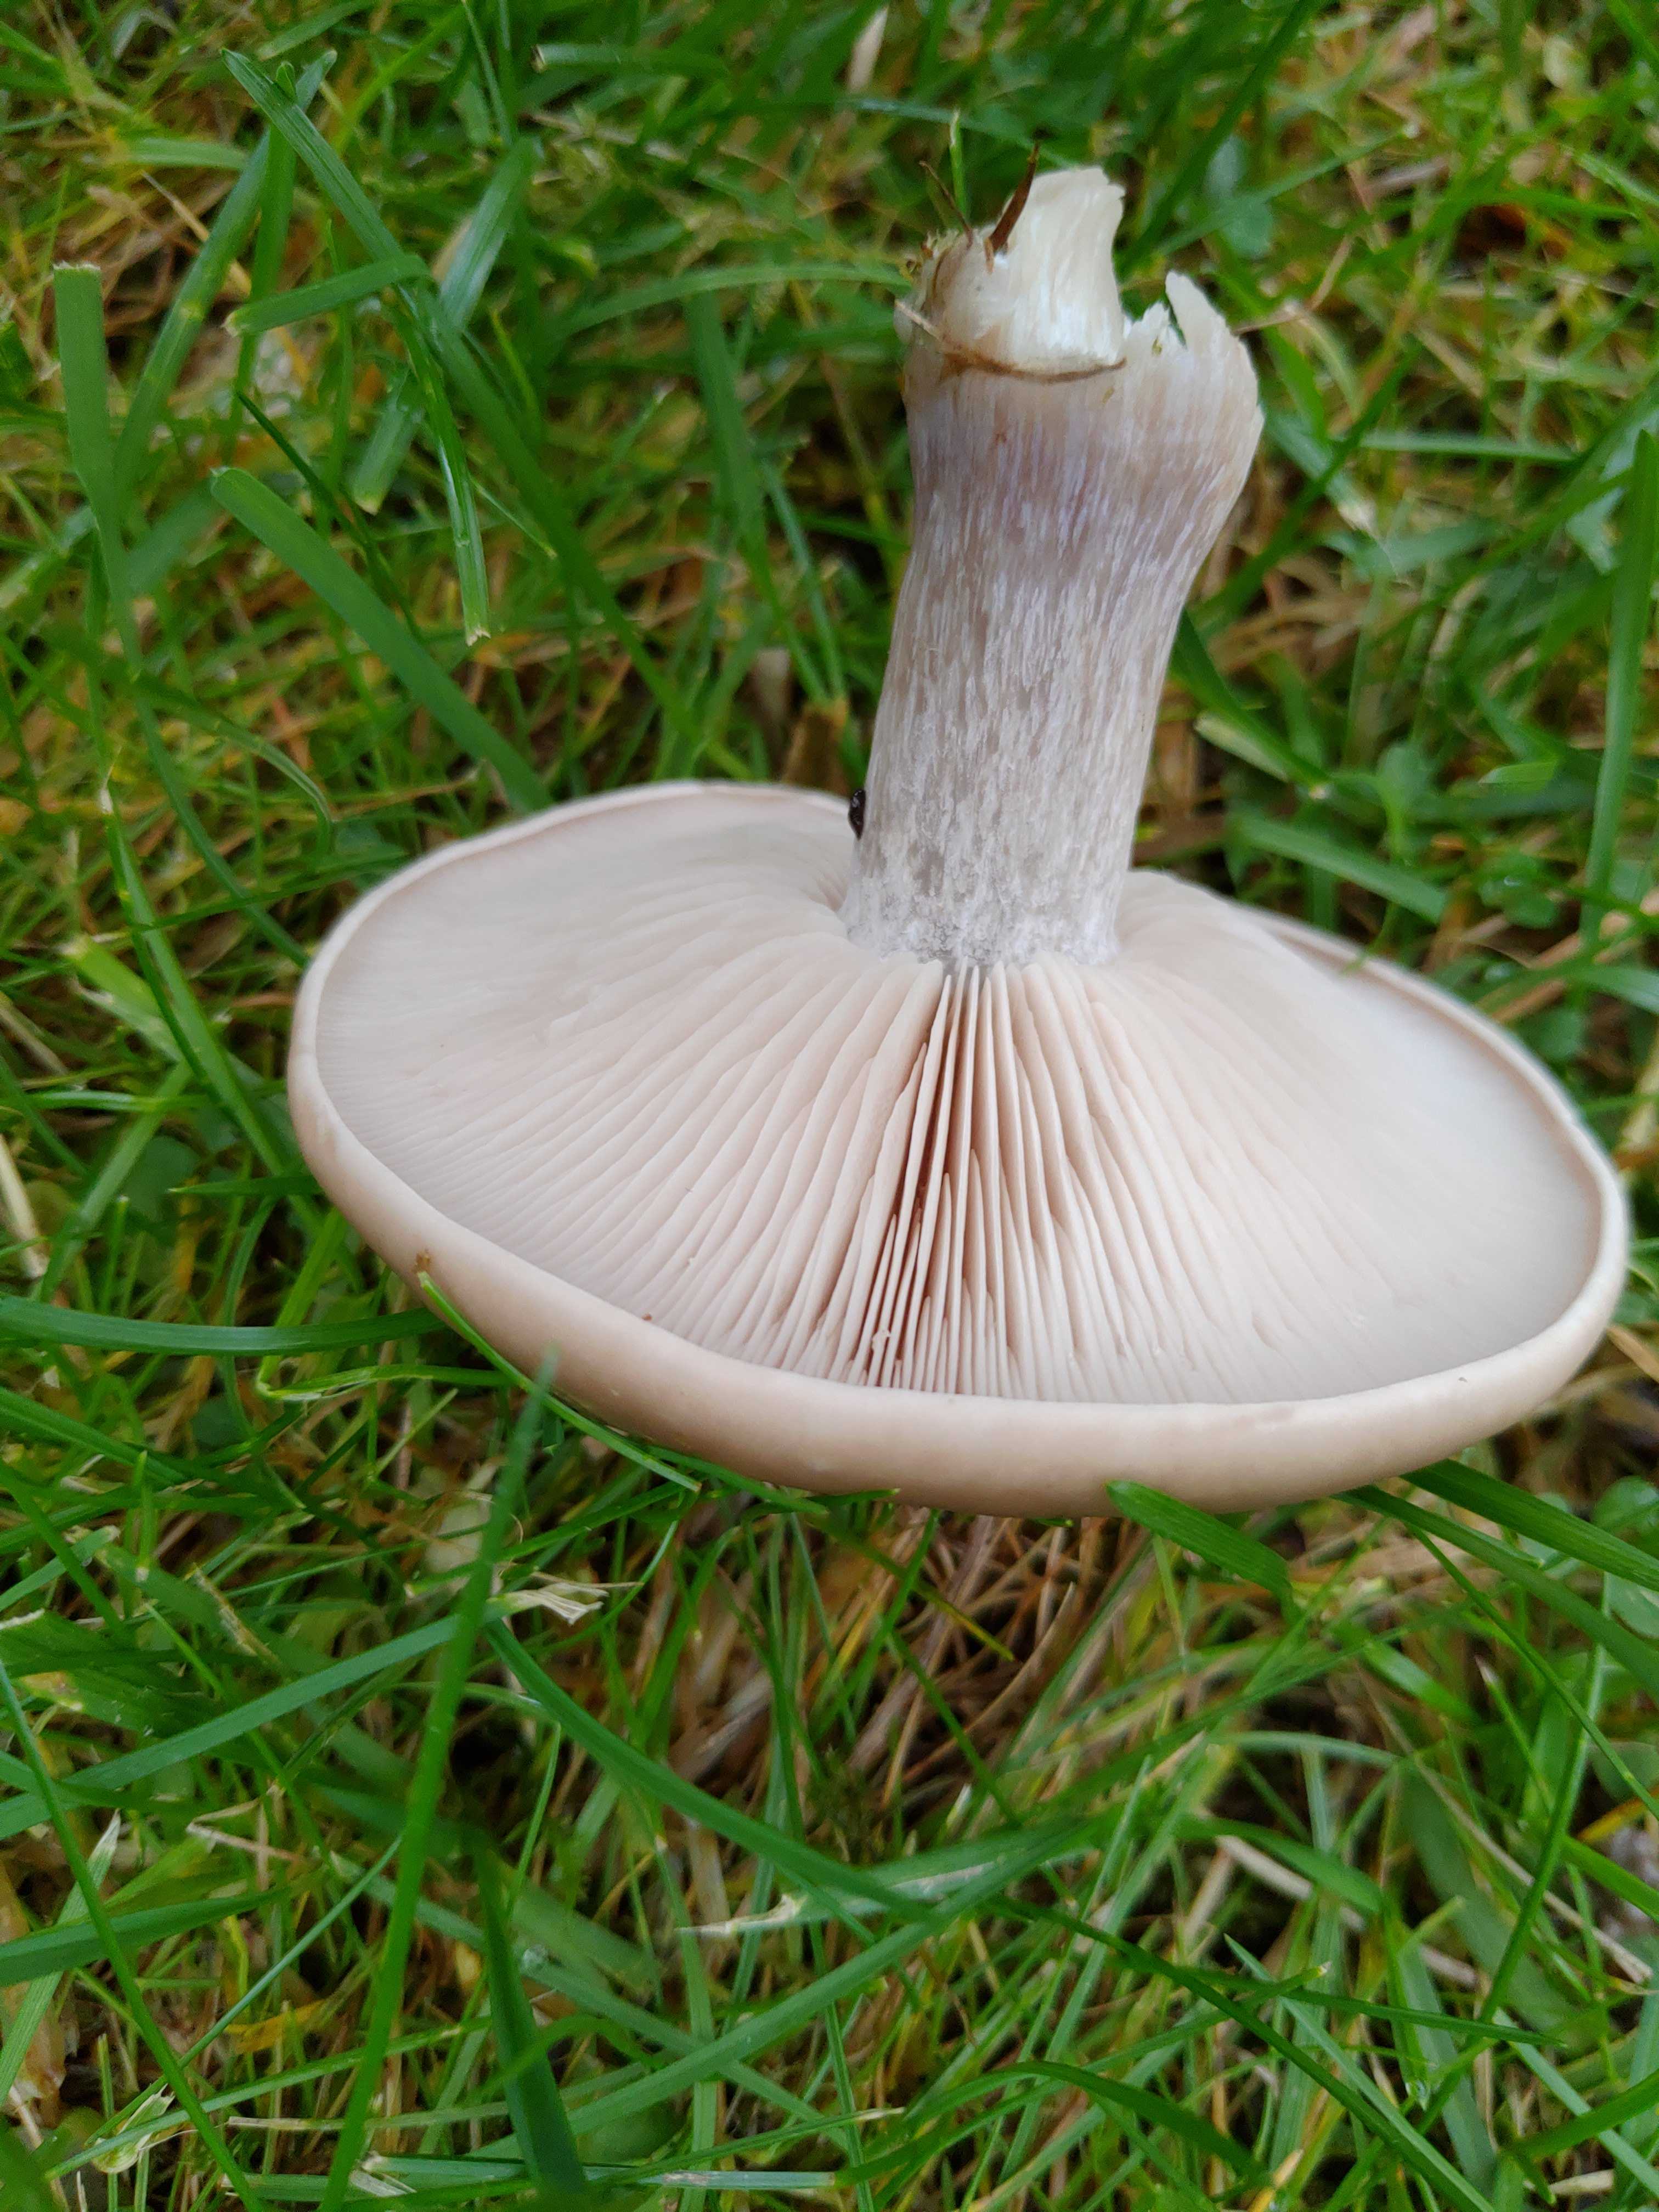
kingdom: Fungi
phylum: Basidiomycota
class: Agaricomycetes
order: Agaricales
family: Tricholomataceae
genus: Lepista
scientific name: Lepista personata
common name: bleg hekseringshat
